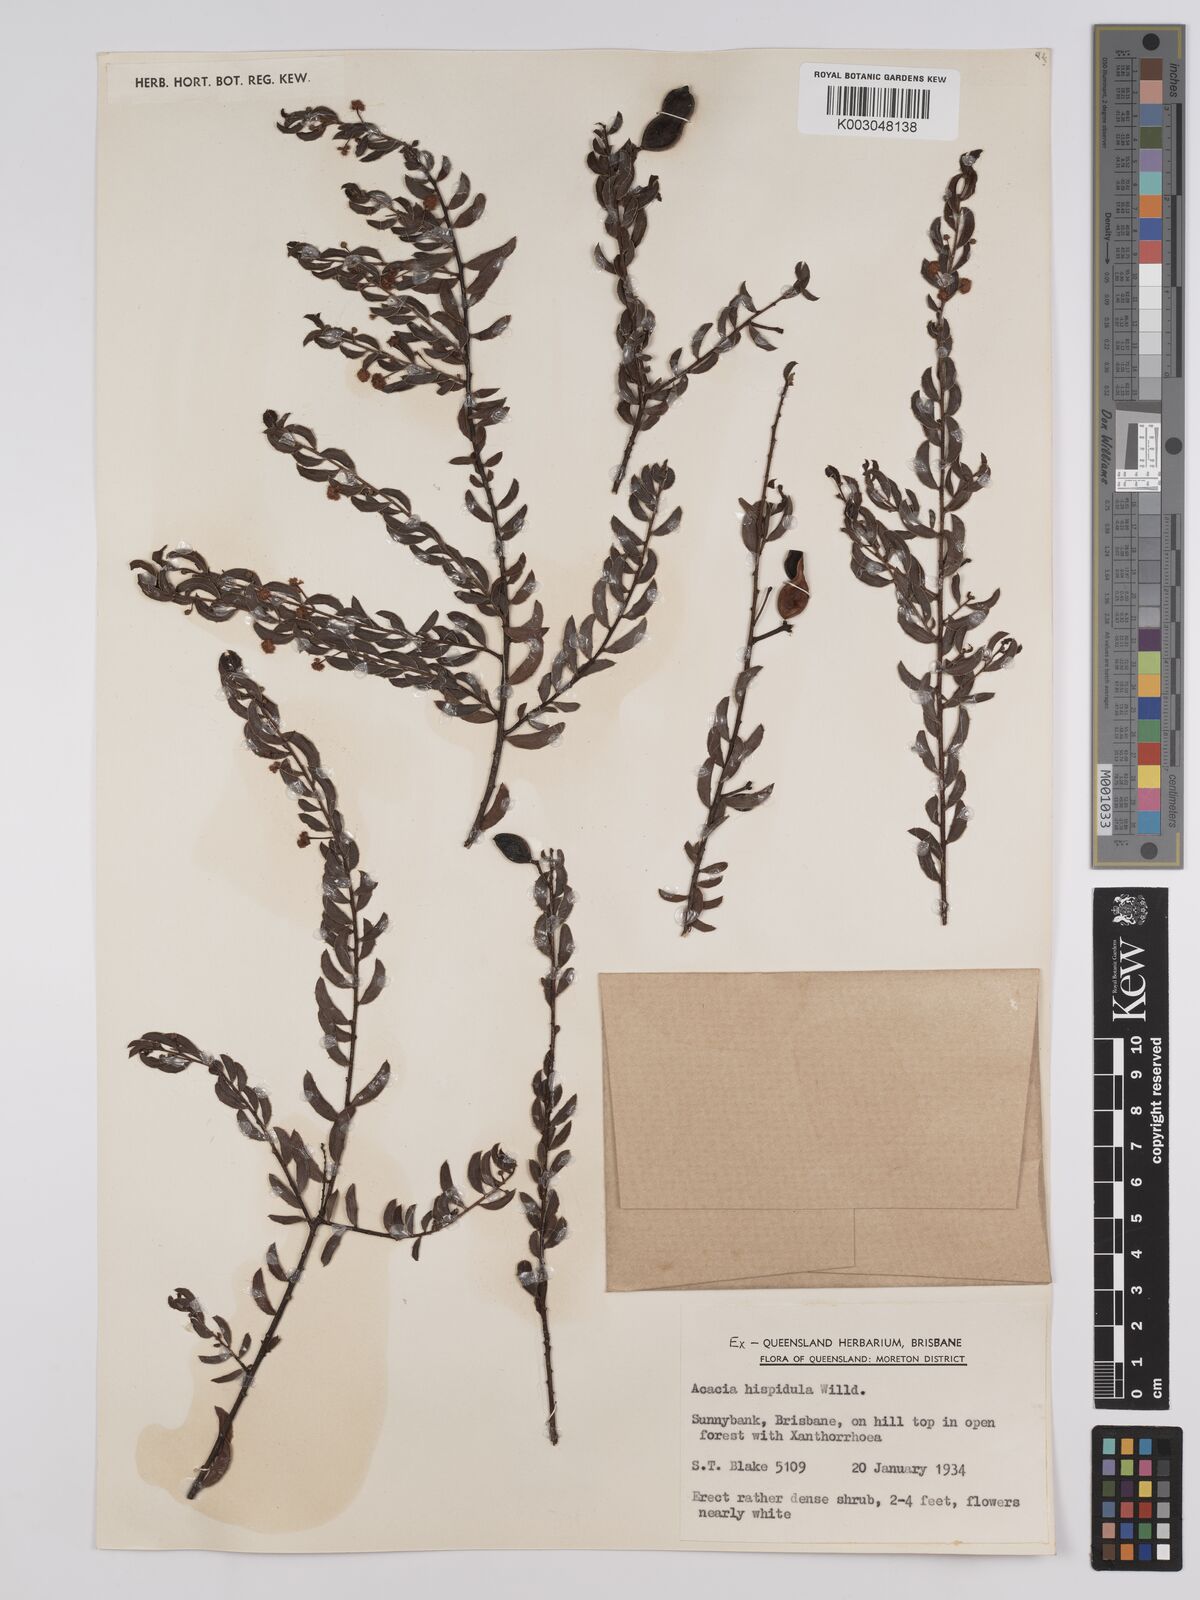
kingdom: Plantae
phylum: Tracheophyta
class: Magnoliopsida
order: Fabales
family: Fabaceae
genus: Acacia
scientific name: Acacia hispidula
